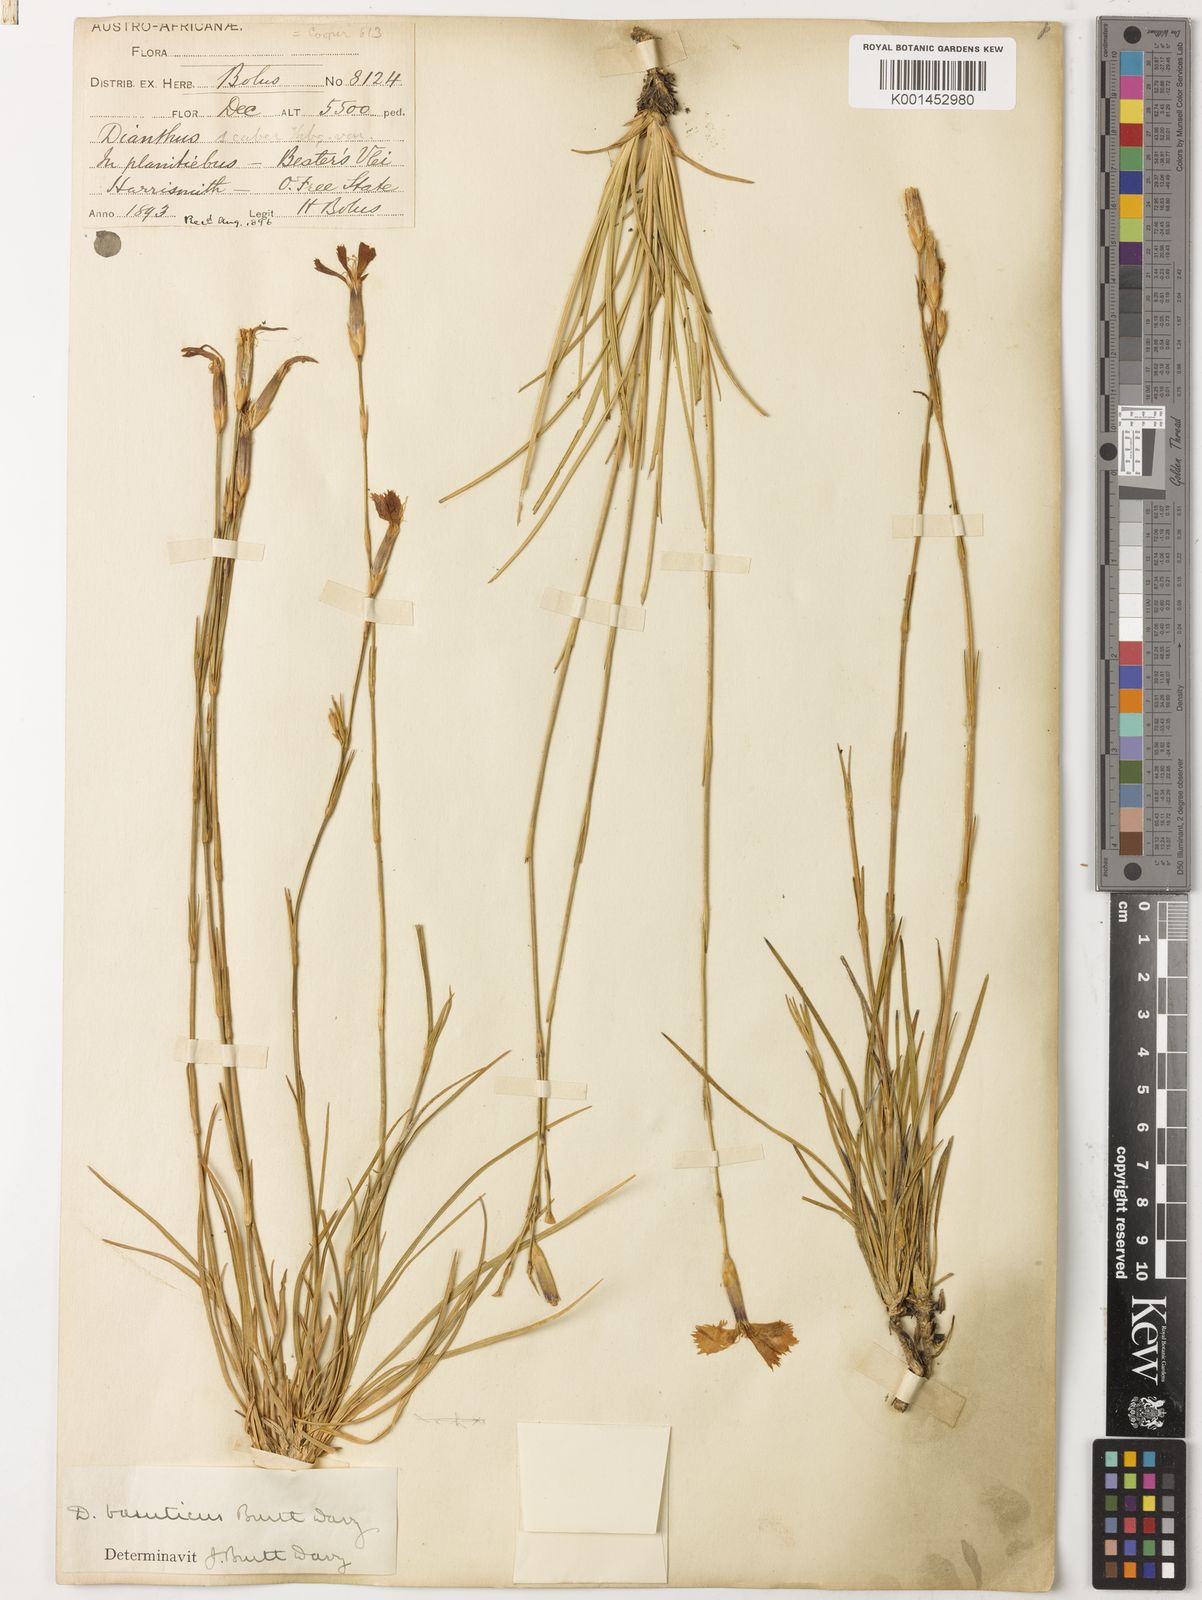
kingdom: Plantae
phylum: Tracheophyta
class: Magnoliopsida
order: Caryophyllales
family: Caryophyllaceae
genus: Dianthus
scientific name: Dianthus basuticus
